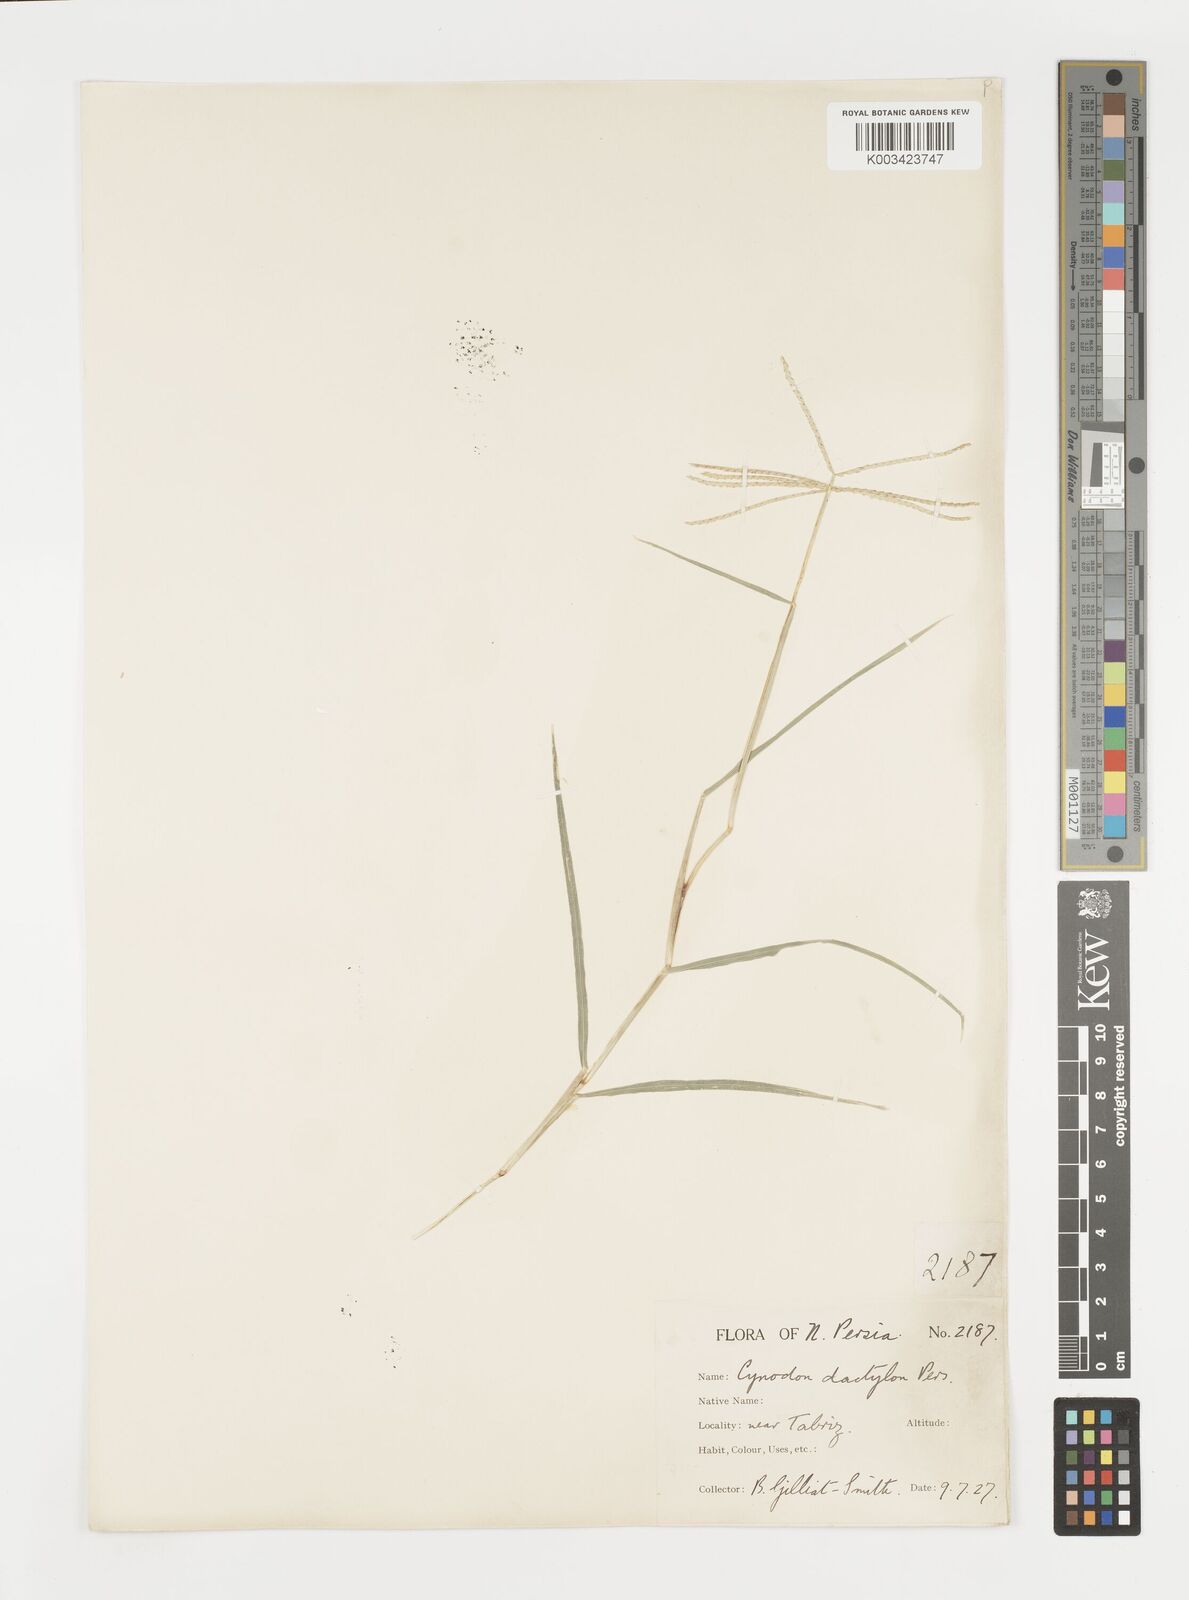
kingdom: Plantae
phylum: Tracheophyta
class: Liliopsida
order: Poales
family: Poaceae
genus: Cynodon
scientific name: Cynodon dactylon
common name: Bermuda grass
